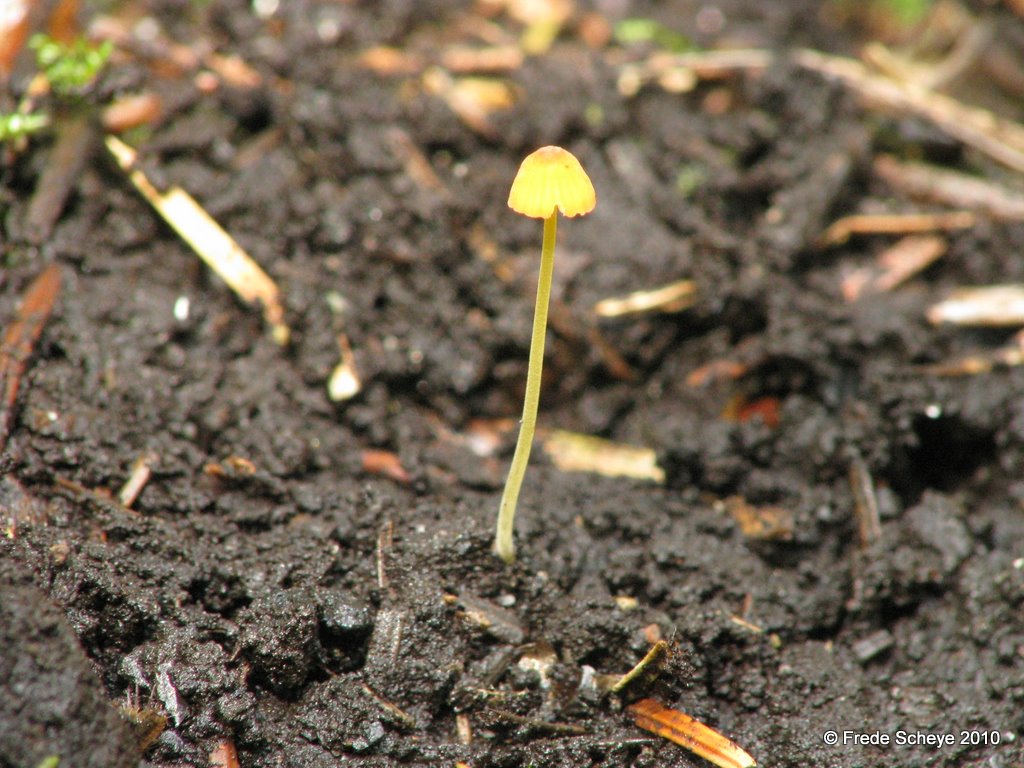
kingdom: Fungi
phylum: Basidiomycota
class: Agaricomycetes
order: Agaricales
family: Mycenaceae
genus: Mycena
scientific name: Mycena acicula
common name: orange huesvamp
